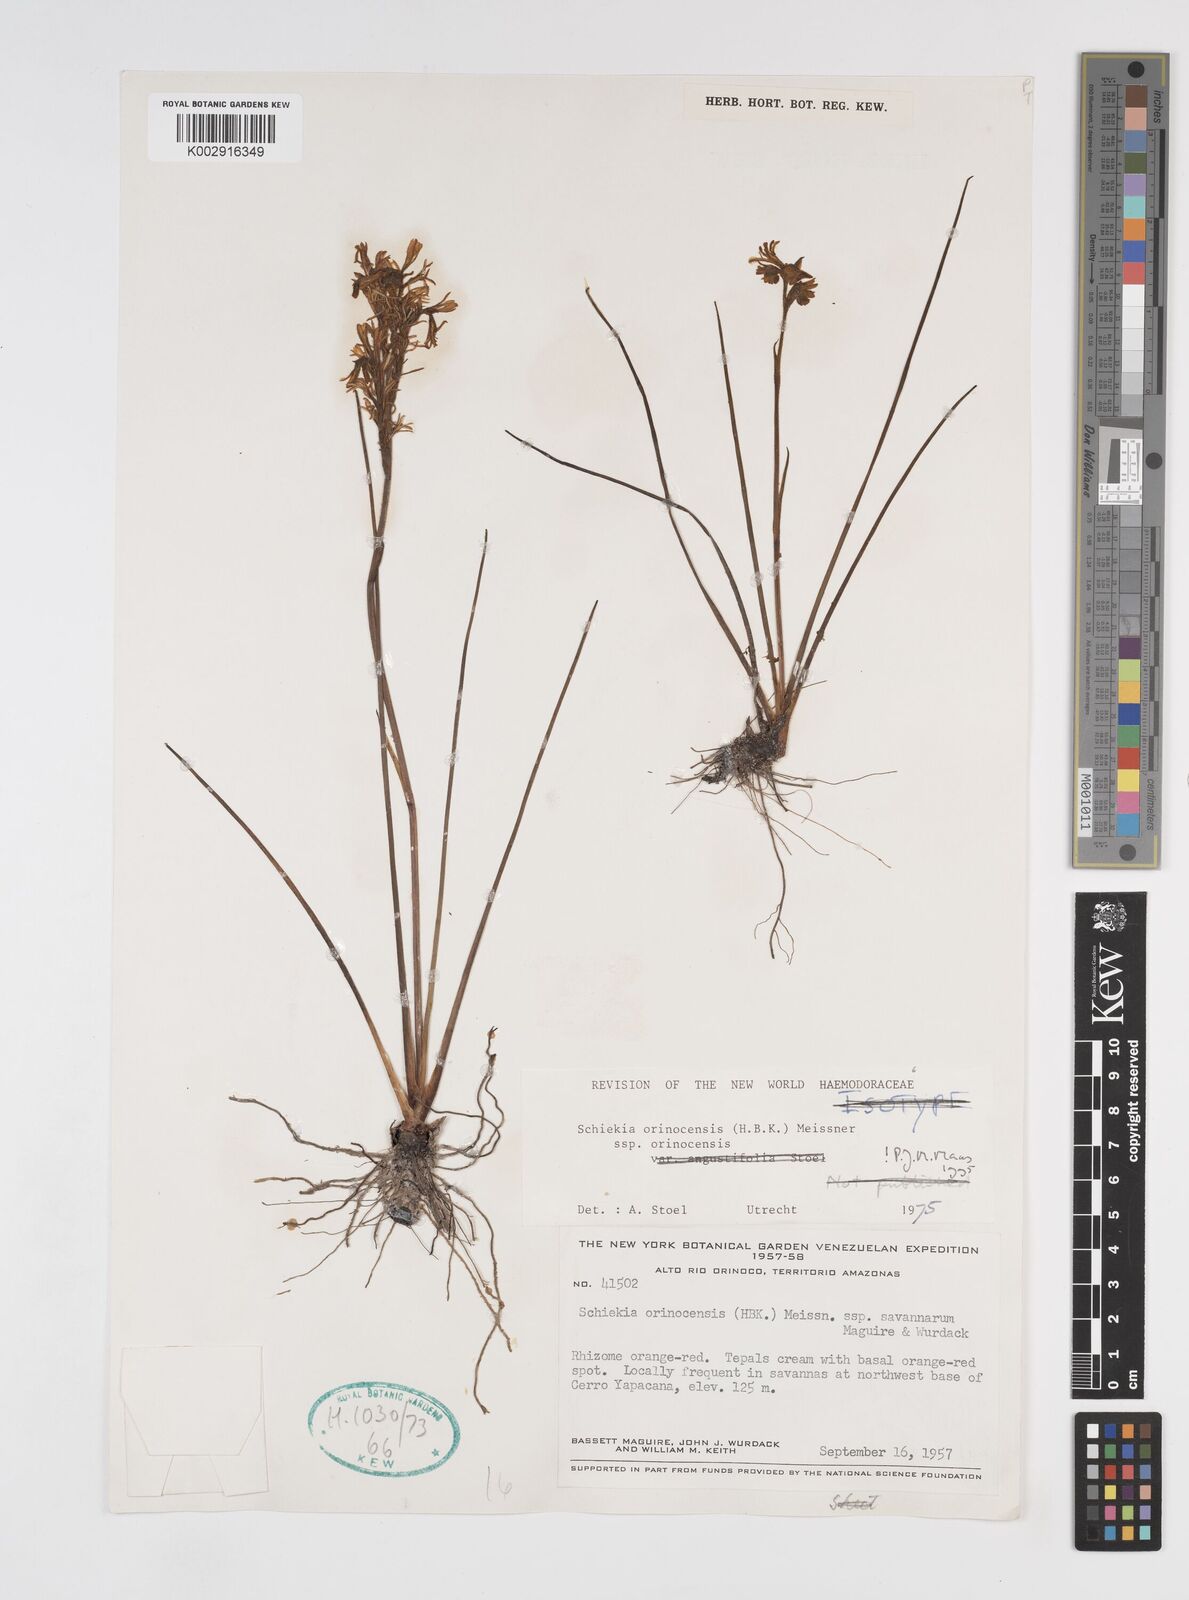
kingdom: Plantae
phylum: Tracheophyta
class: Liliopsida
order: Commelinales
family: Haemodoraceae
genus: Schiekia
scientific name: Schiekia orinocensis
